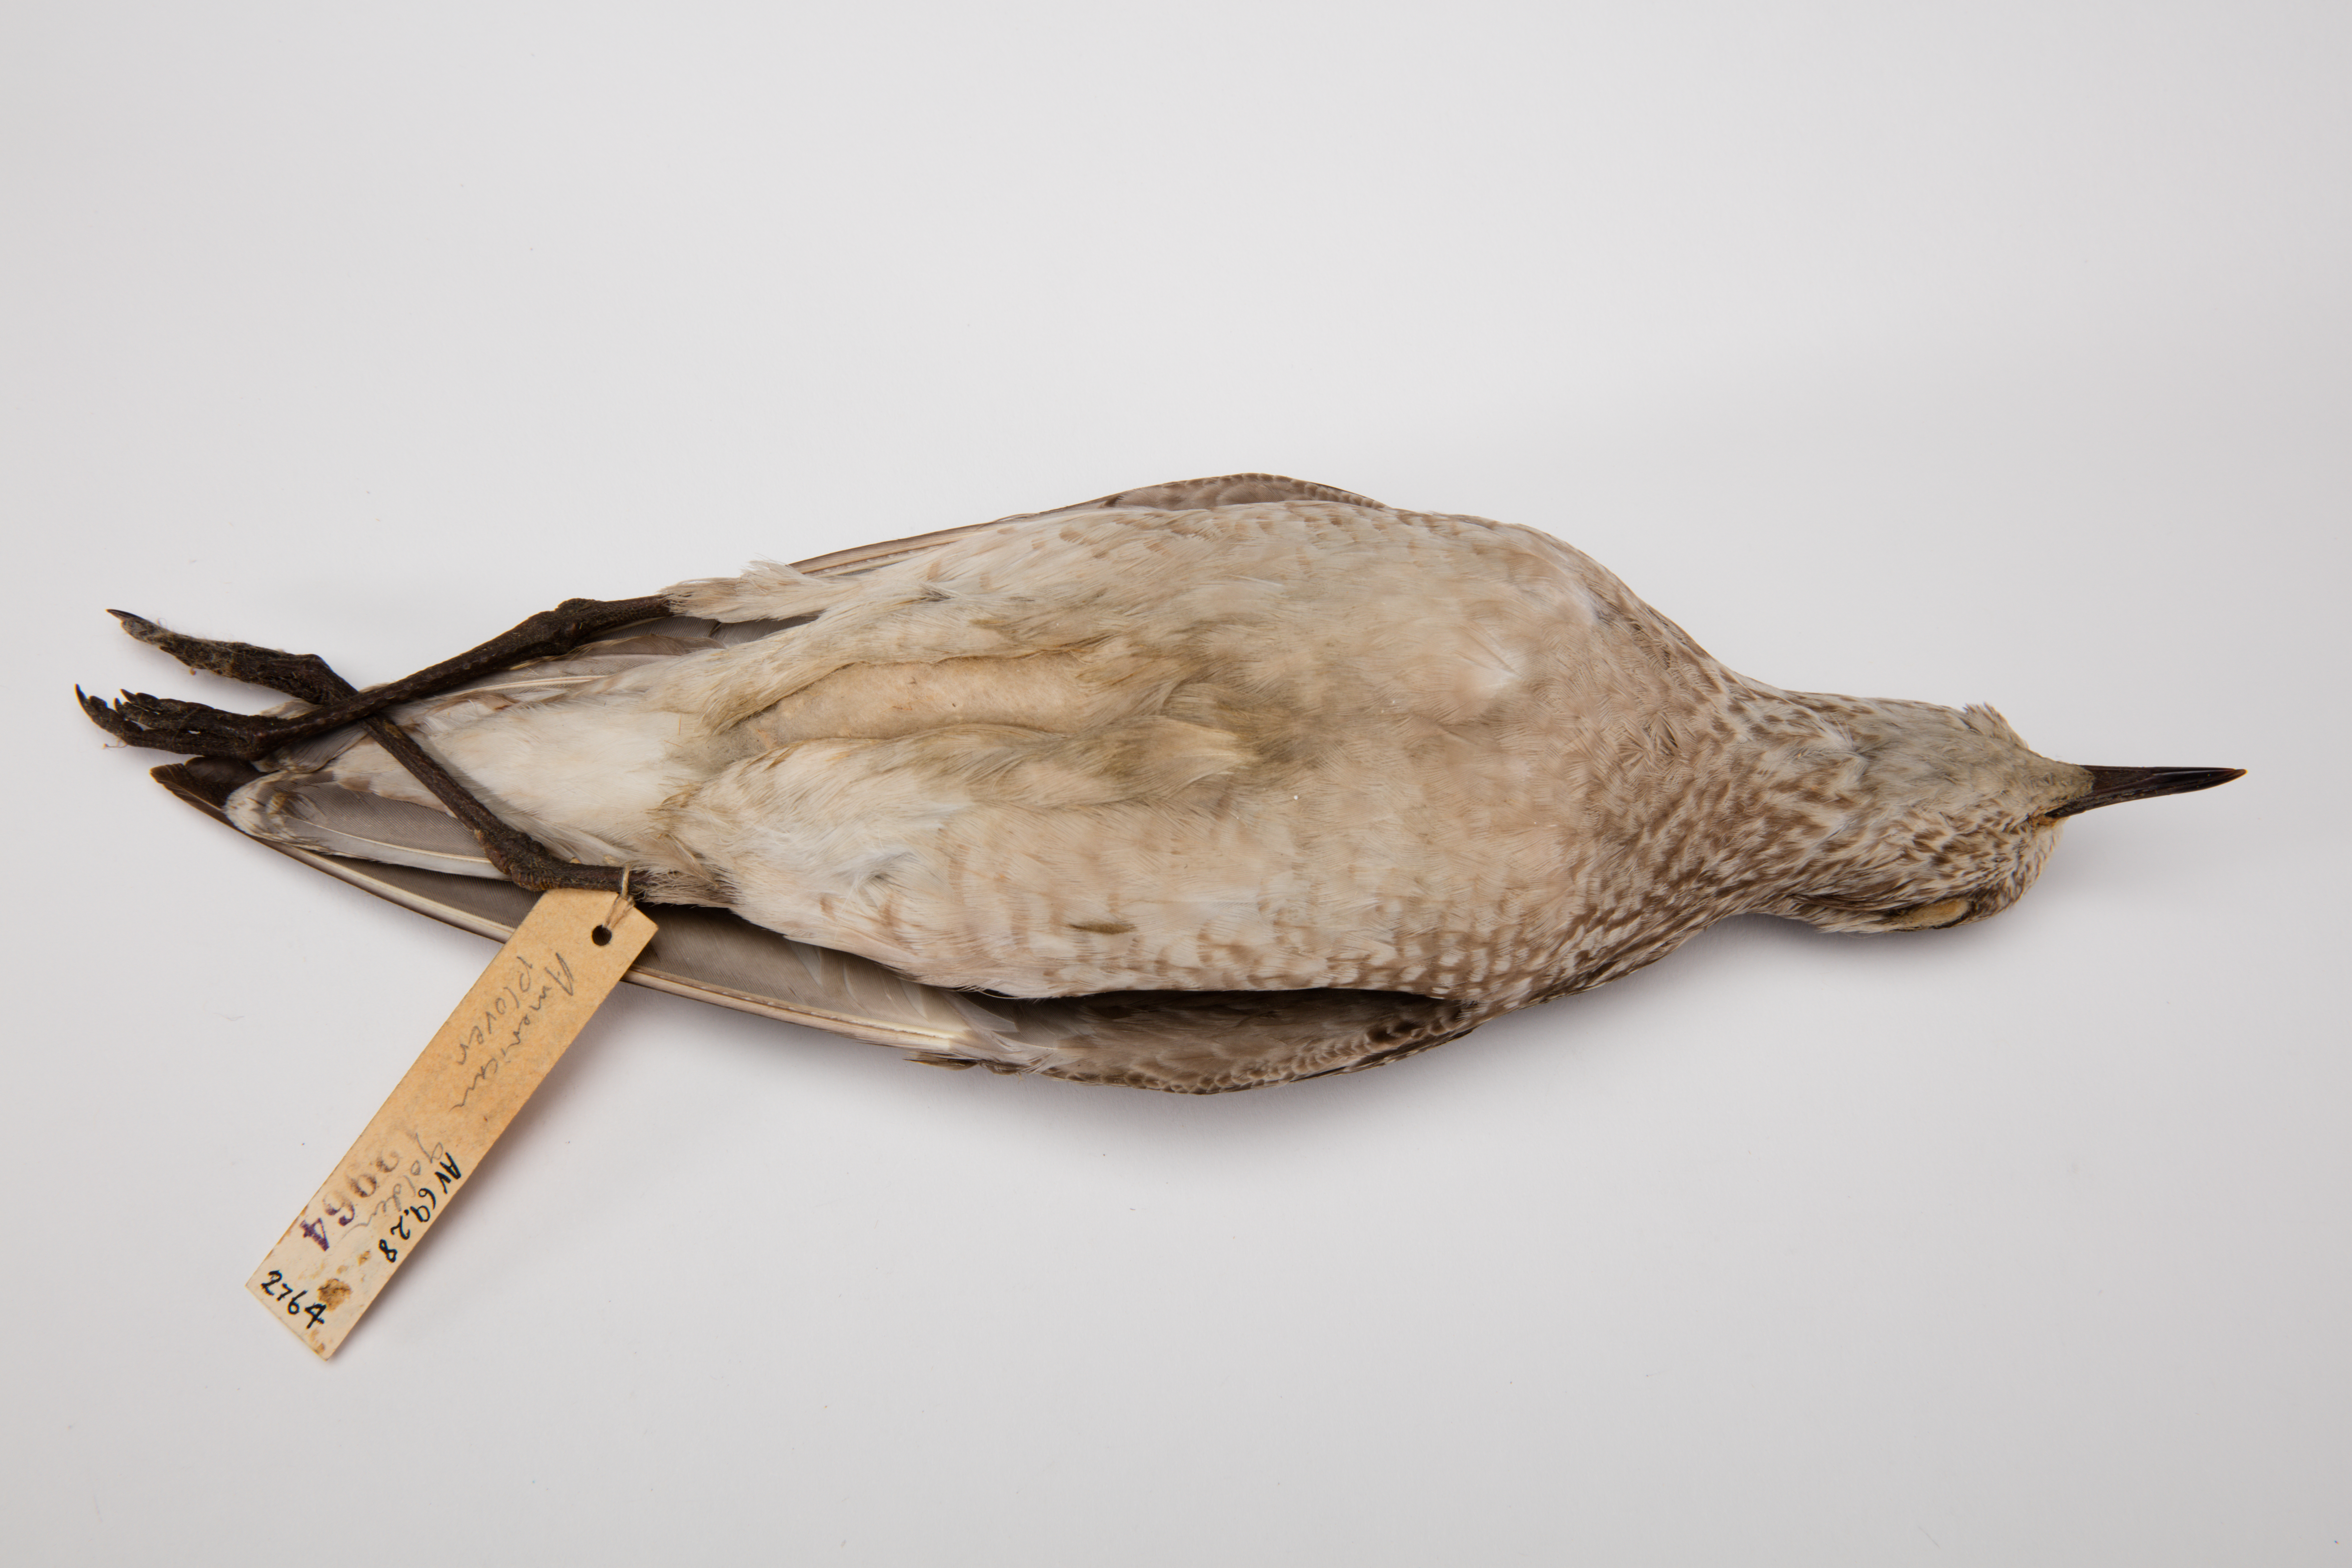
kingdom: Animalia
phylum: Chordata
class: Aves
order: Charadriiformes
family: Charadriidae
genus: Pluvialis
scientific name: Pluvialis fulva
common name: Pacific golden plover
